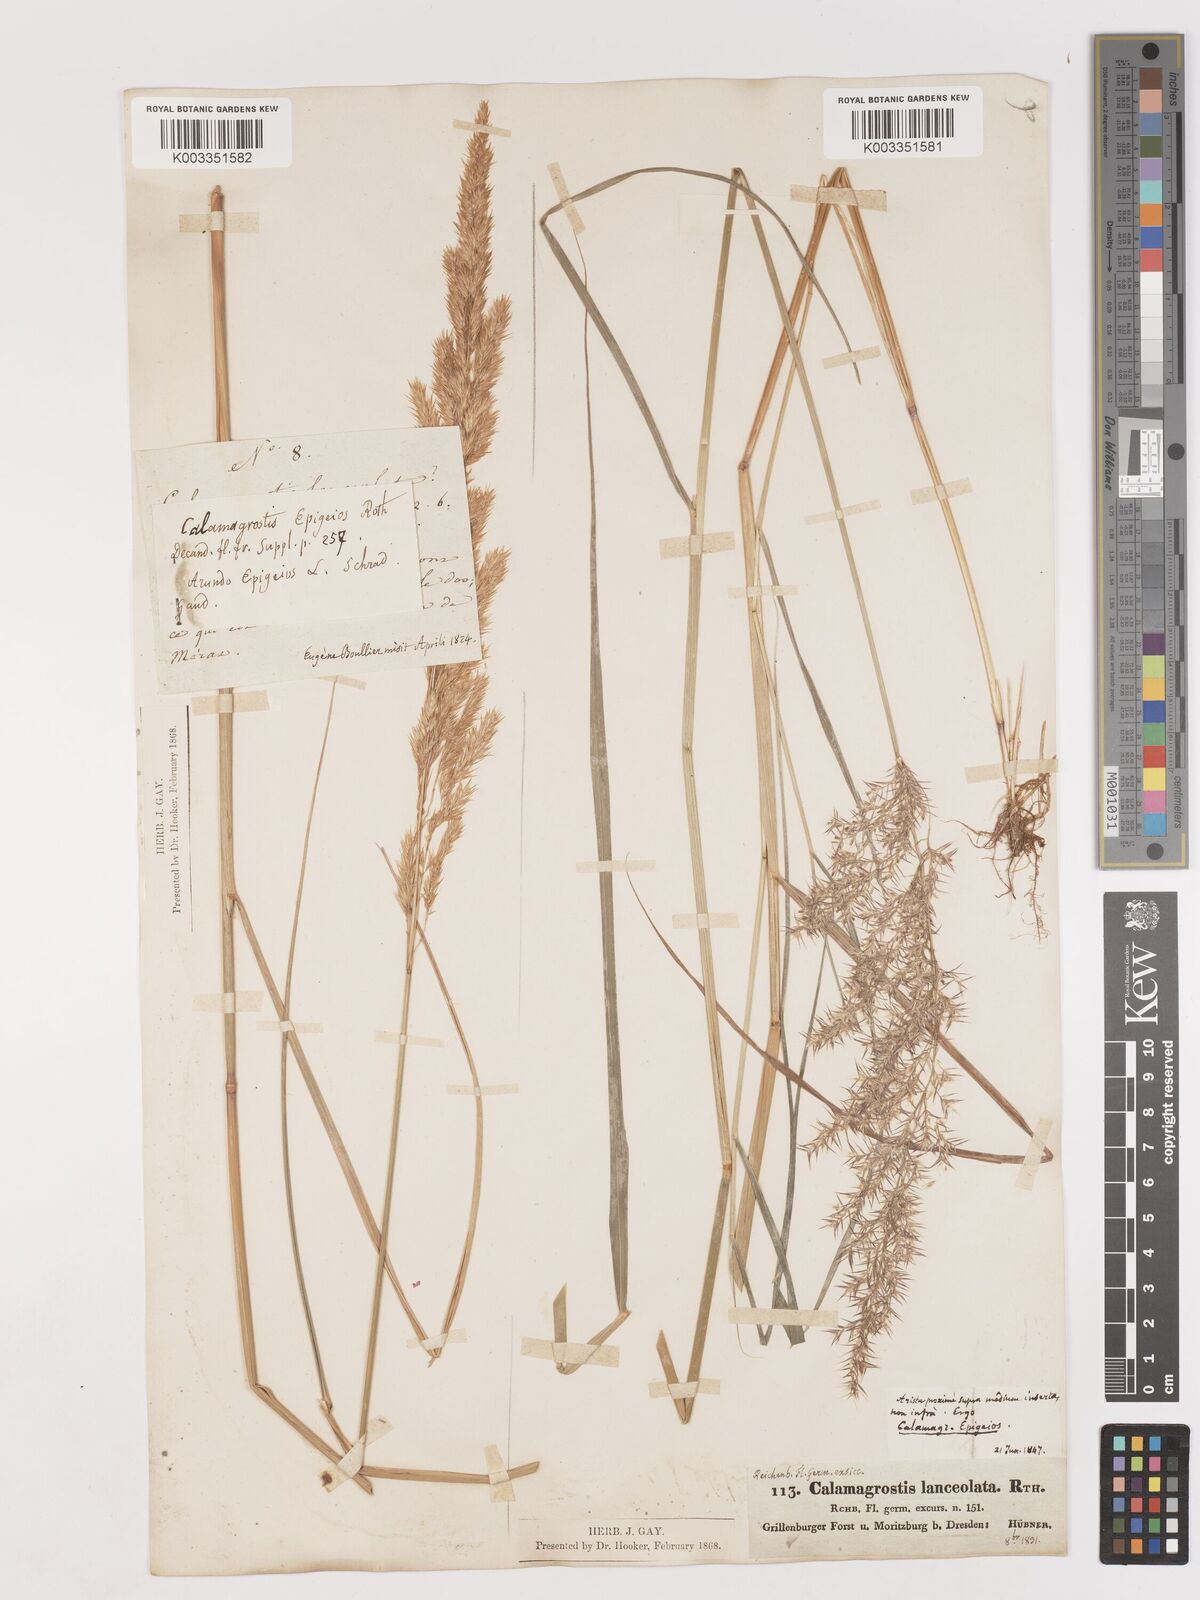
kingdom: Plantae
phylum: Tracheophyta
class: Liliopsida
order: Poales
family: Poaceae
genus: Calamagrostis
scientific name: Calamagrostis canescens
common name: Purple small-reed
